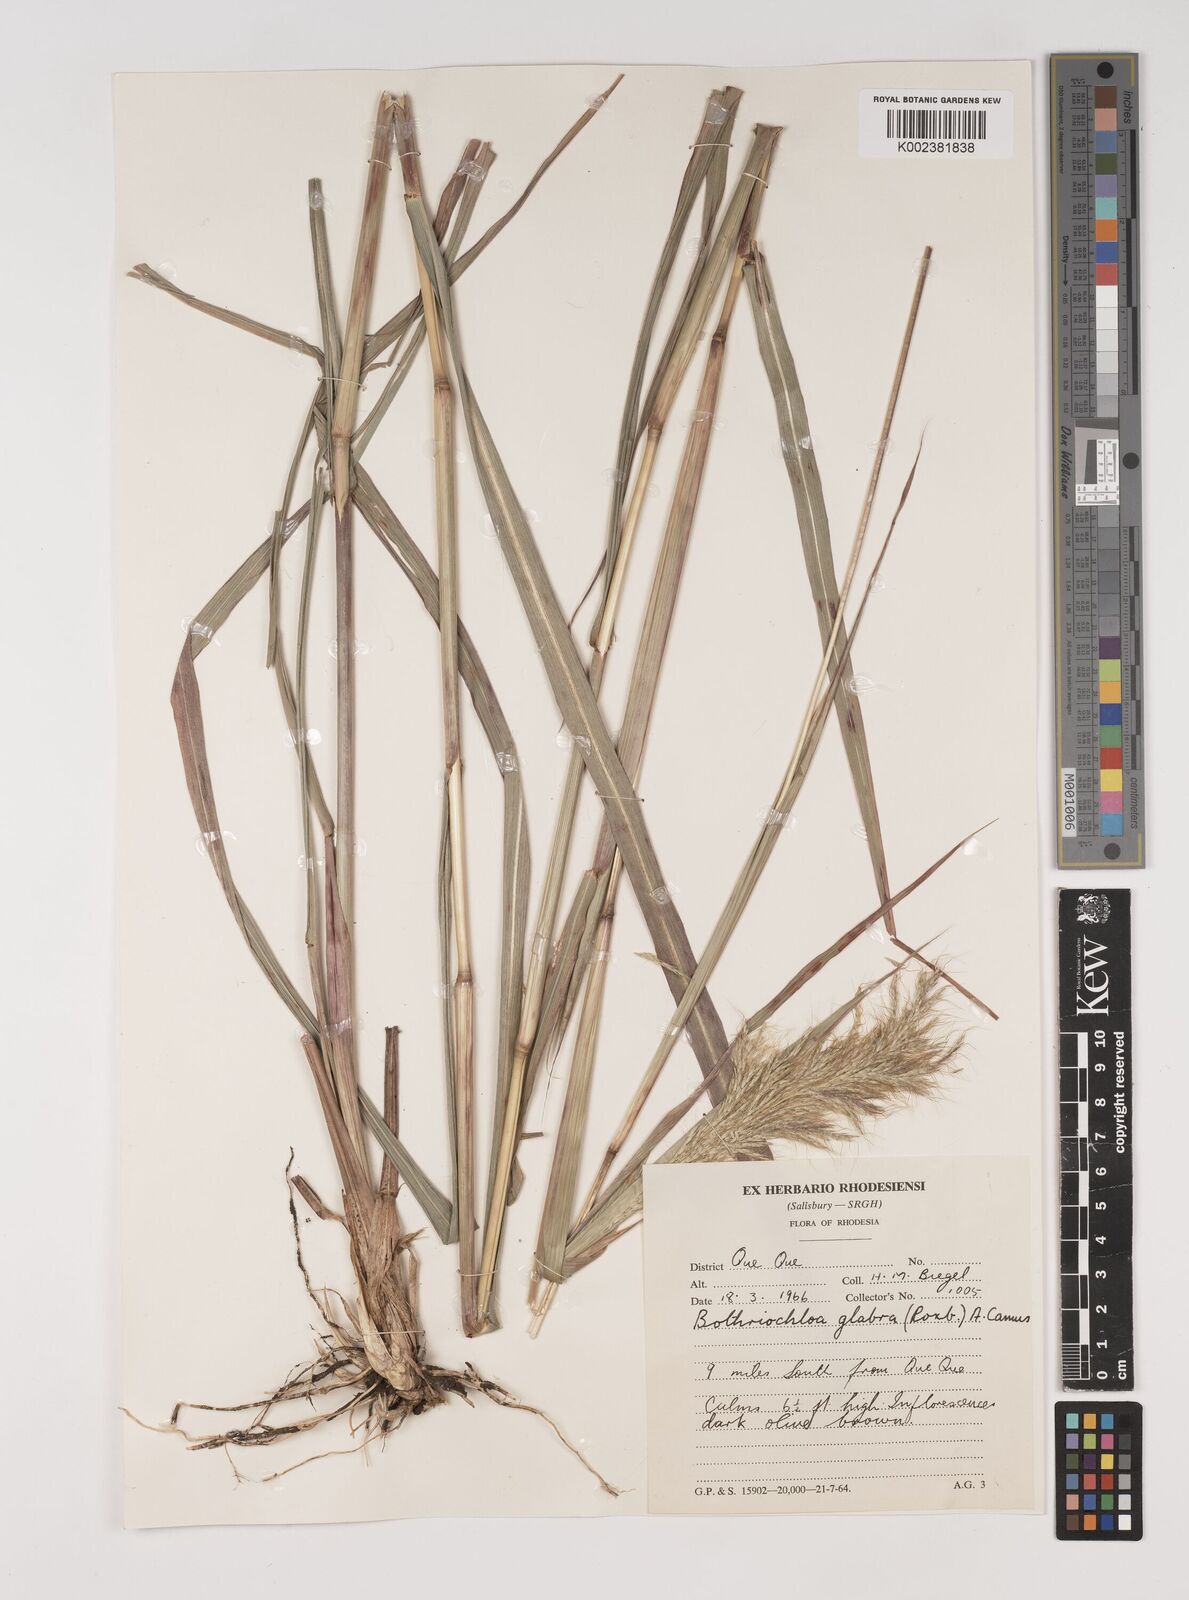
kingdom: Plantae
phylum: Tracheophyta
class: Liliopsida
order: Poales
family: Poaceae
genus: Bothriochloa
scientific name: Bothriochloa bladhii
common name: Caucasian bluestem
